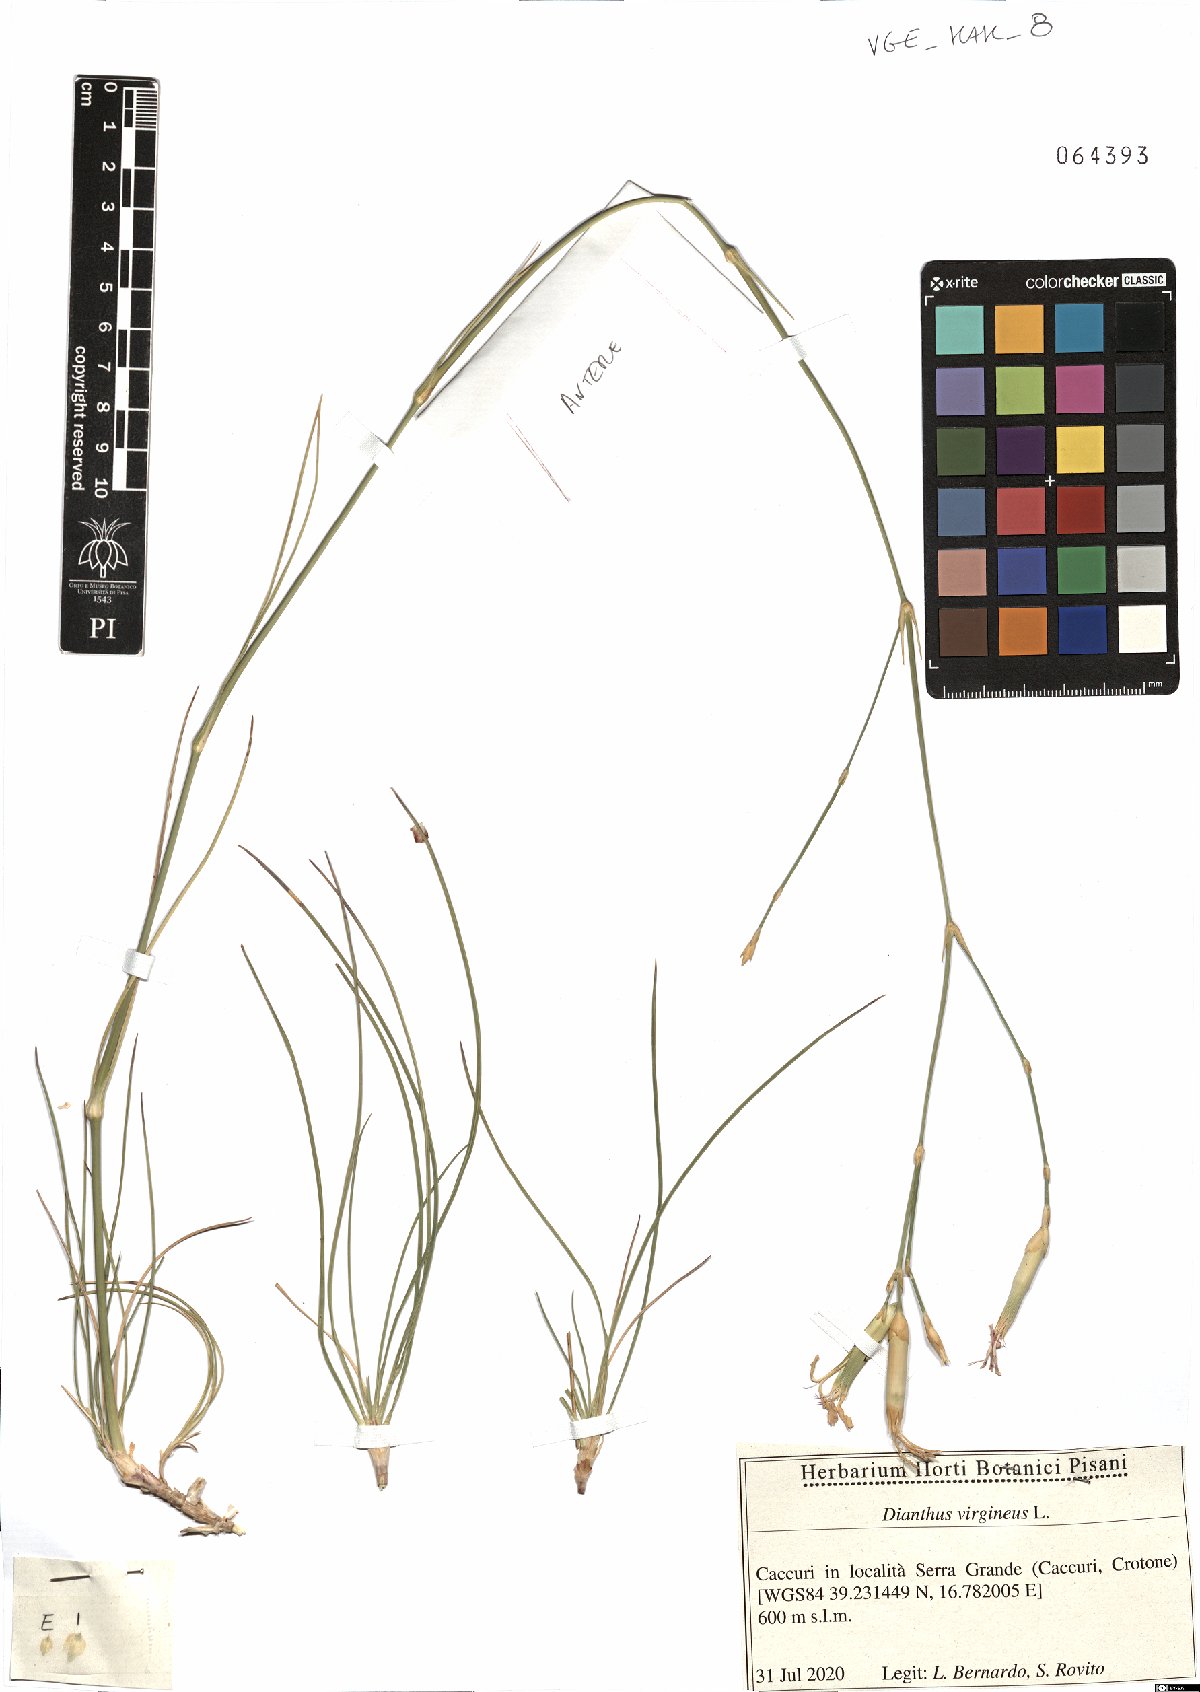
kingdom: Plantae
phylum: Tracheophyta
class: Magnoliopsida
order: Caryophyllales
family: Caryophyllaceae
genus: Dianthus
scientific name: Dianthus virgineus
